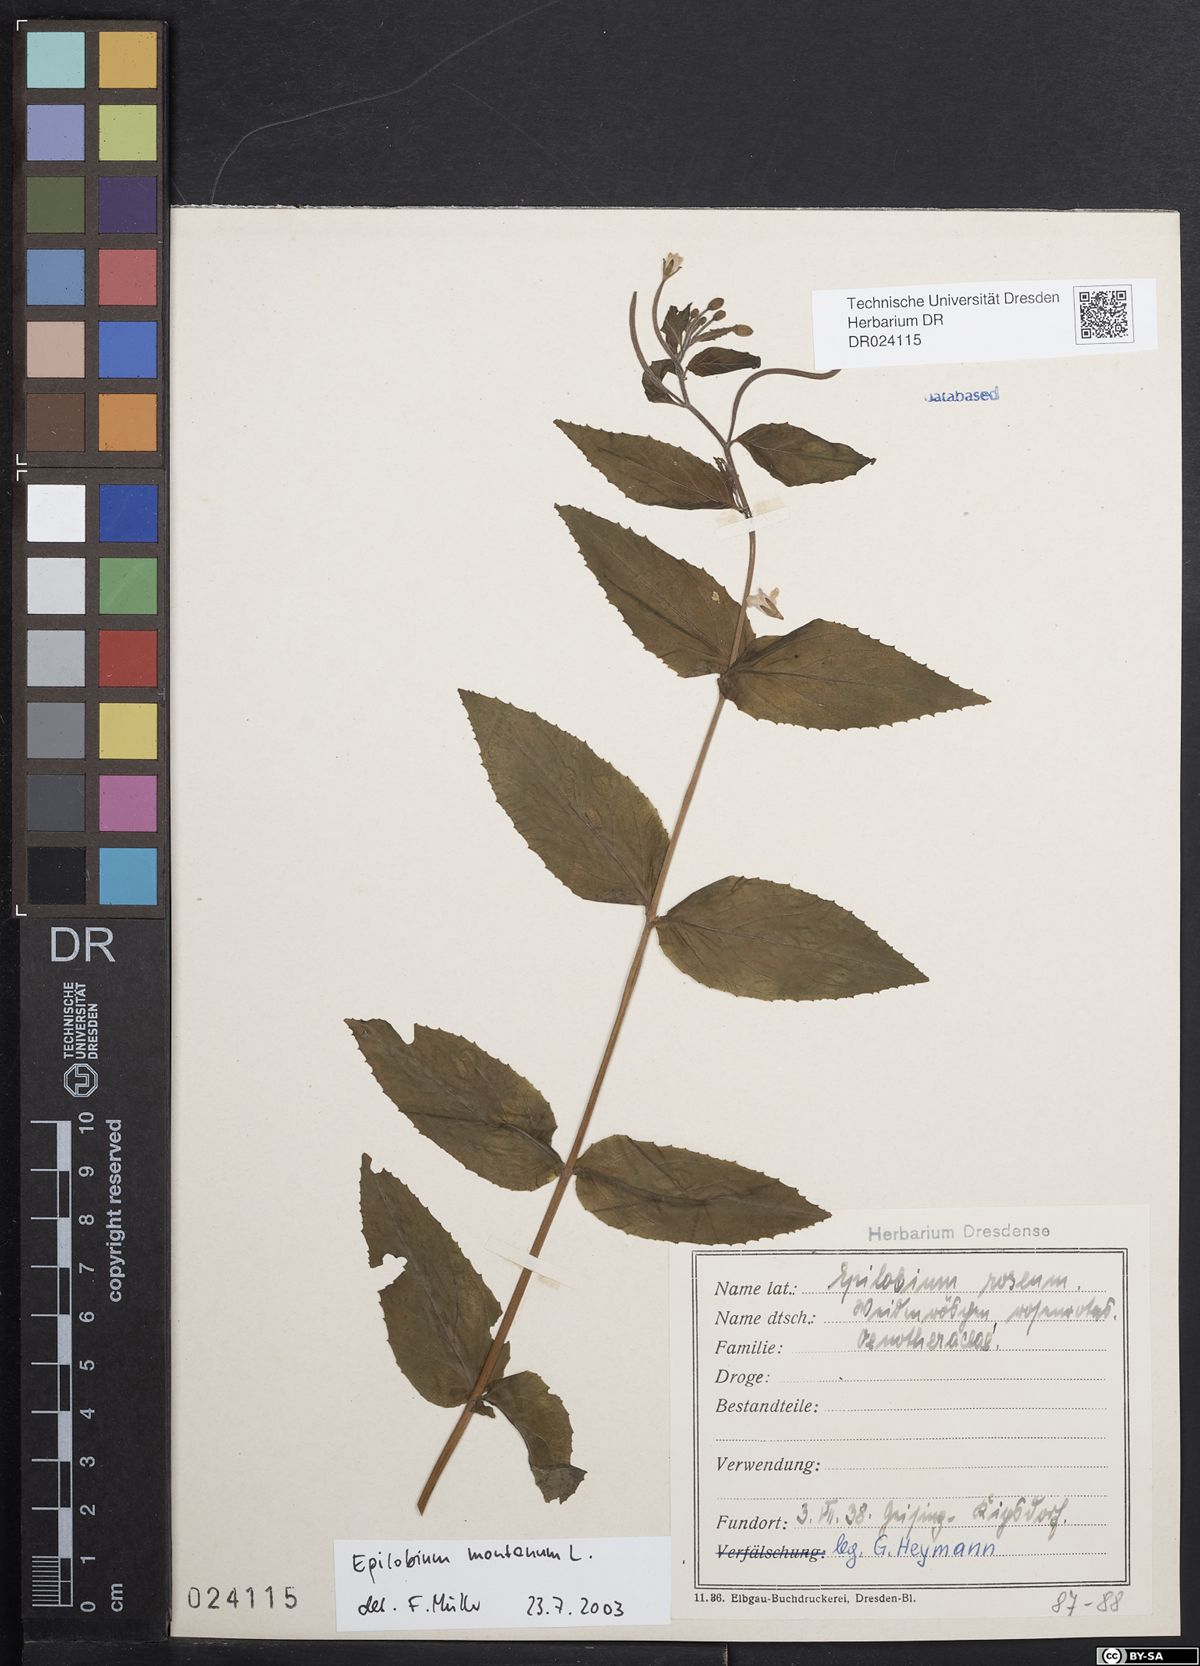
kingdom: Plantae
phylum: Tracheophyta
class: Magnoliopsida
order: Myrtales
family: Onagraceae
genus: Epilobium
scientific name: Epilobium montanum
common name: Broad-leaved willowherb
